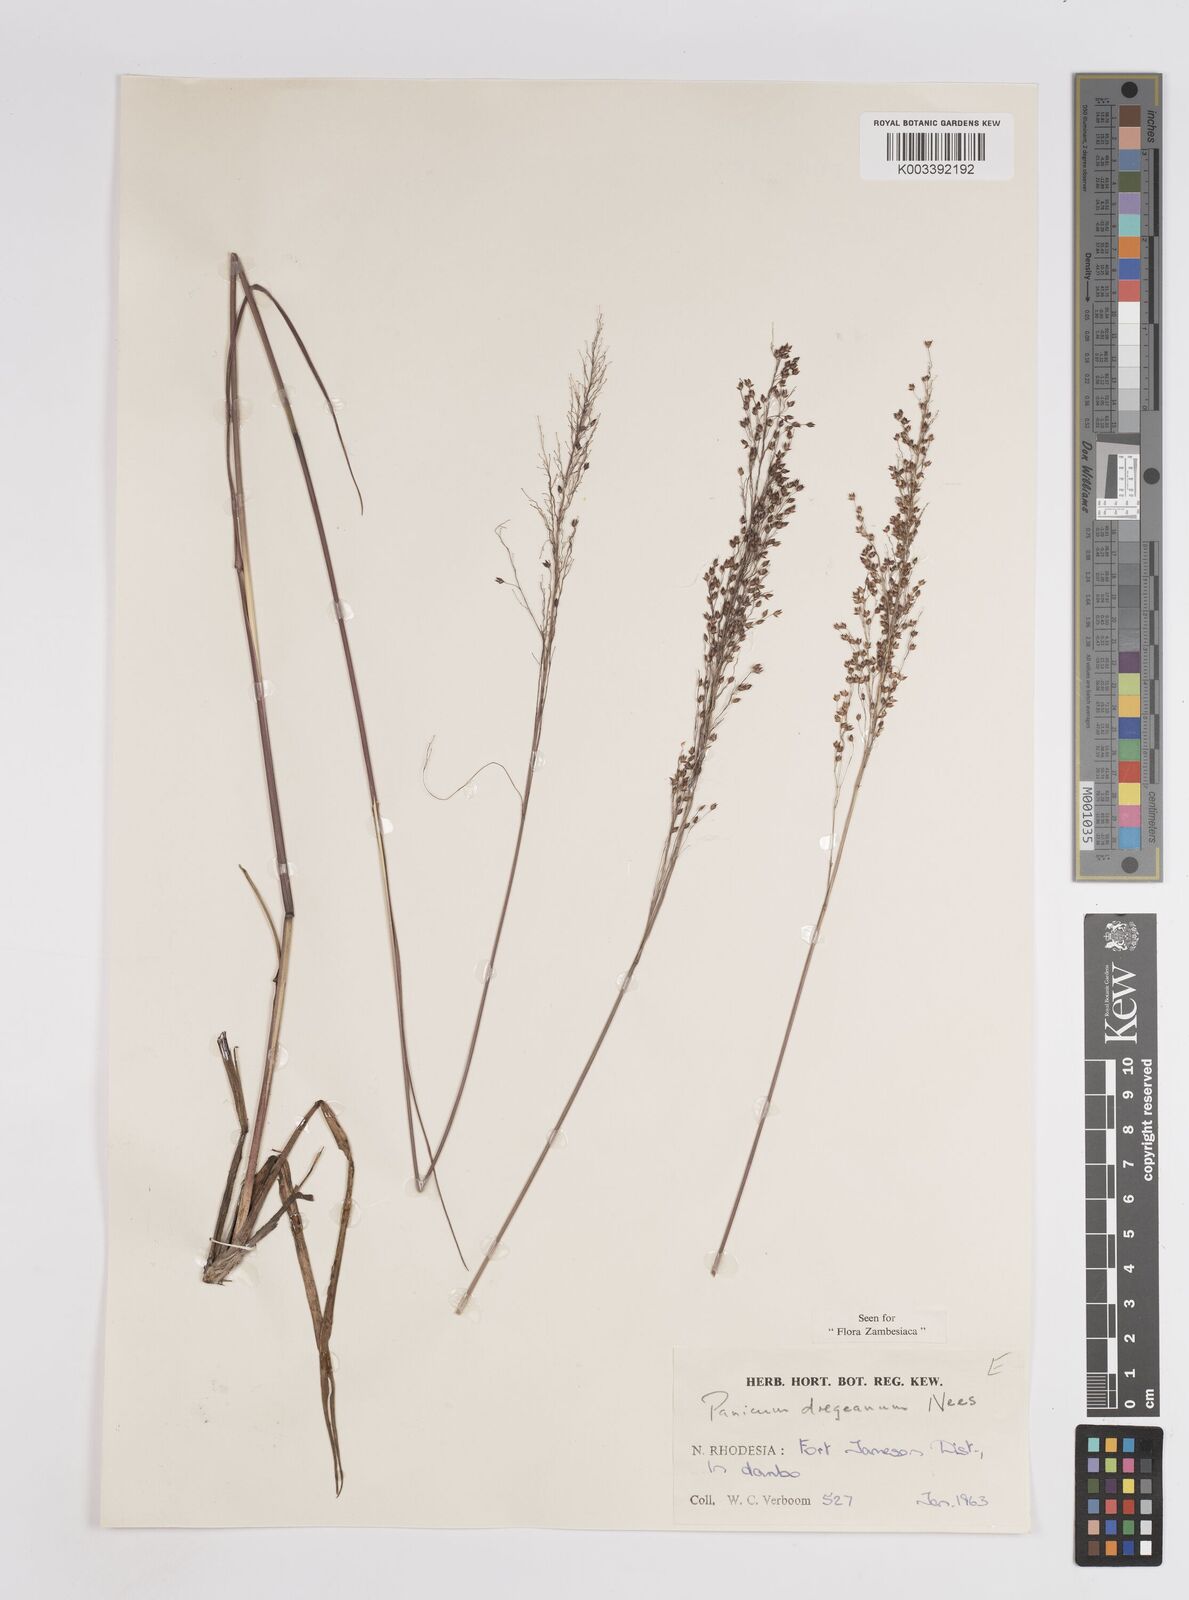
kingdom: Plantae
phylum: Tracheophyta
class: Liliopsida
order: Poales
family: Poaceae
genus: Panicum
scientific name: Panicum dregeanum
